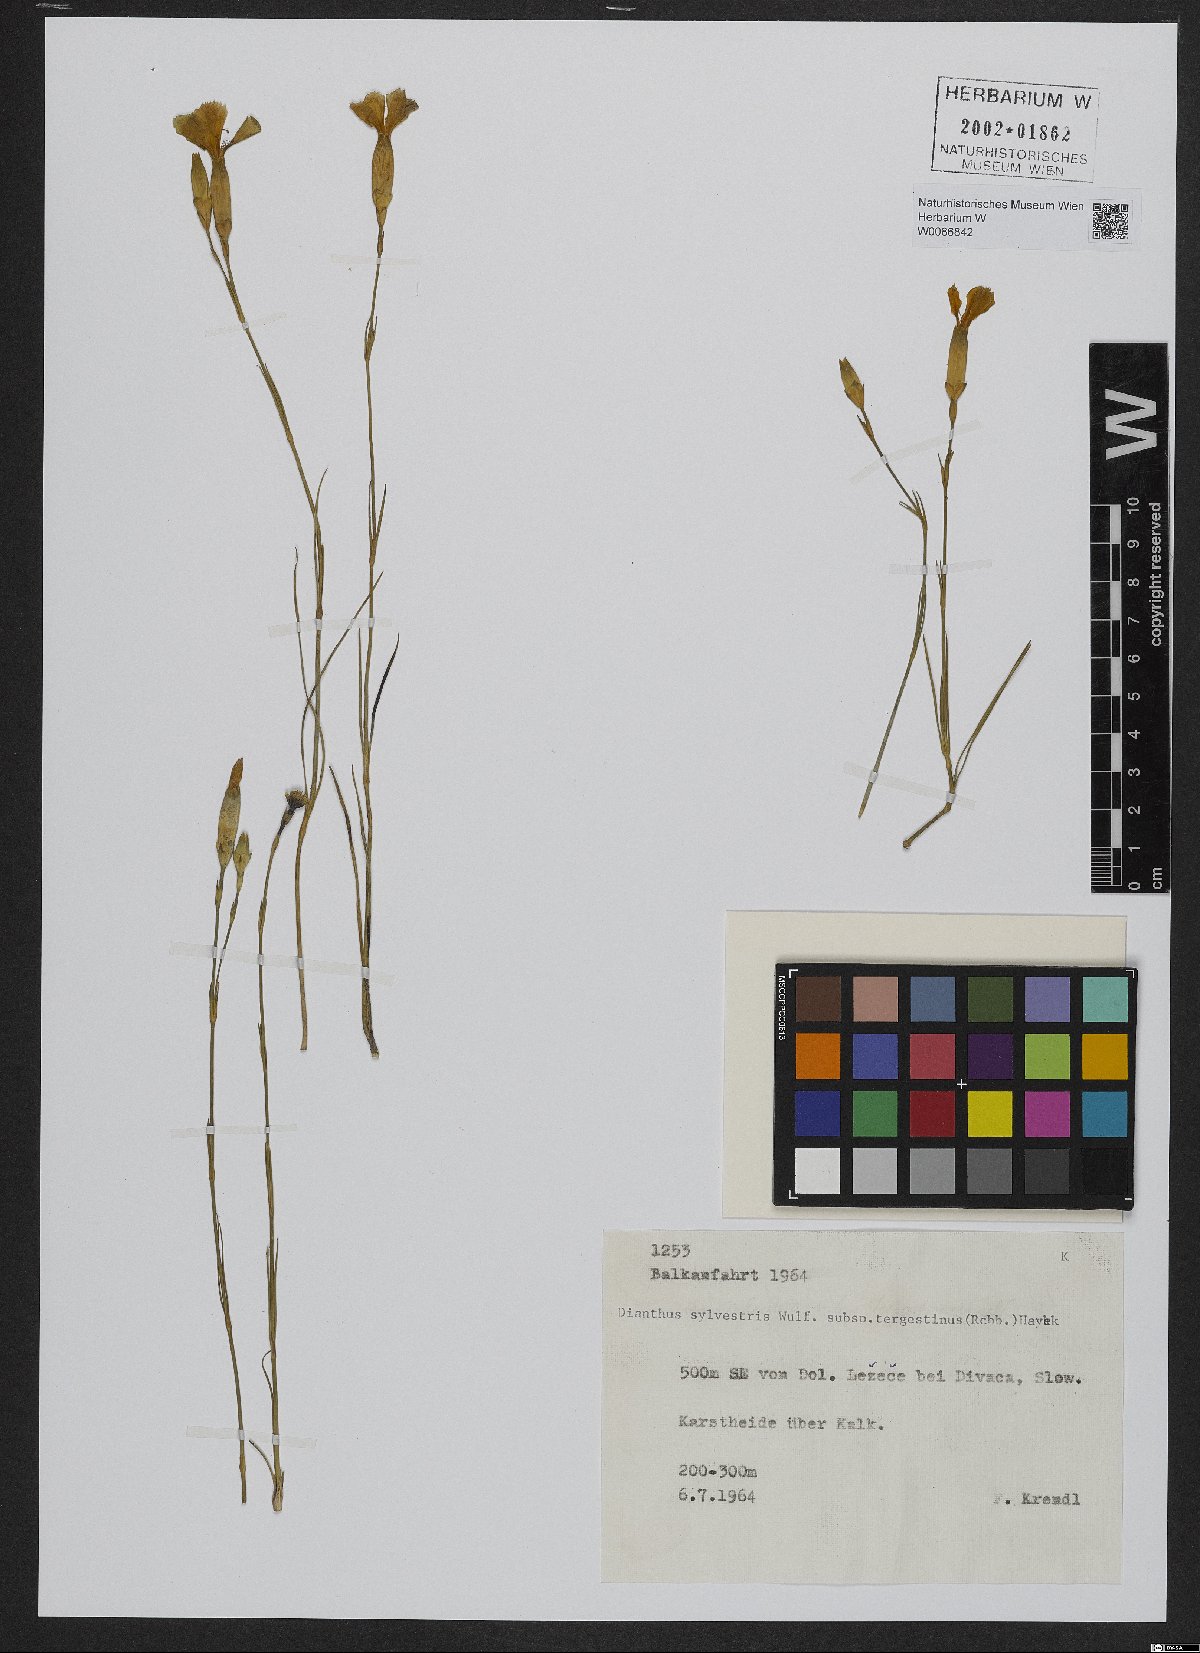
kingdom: Plantae
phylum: Tracheophyta
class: Magnoliopsida
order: Caryophyllales
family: Caryophyllaceae
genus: Dianthus
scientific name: Dianthus sylvestris
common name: Wood pink
